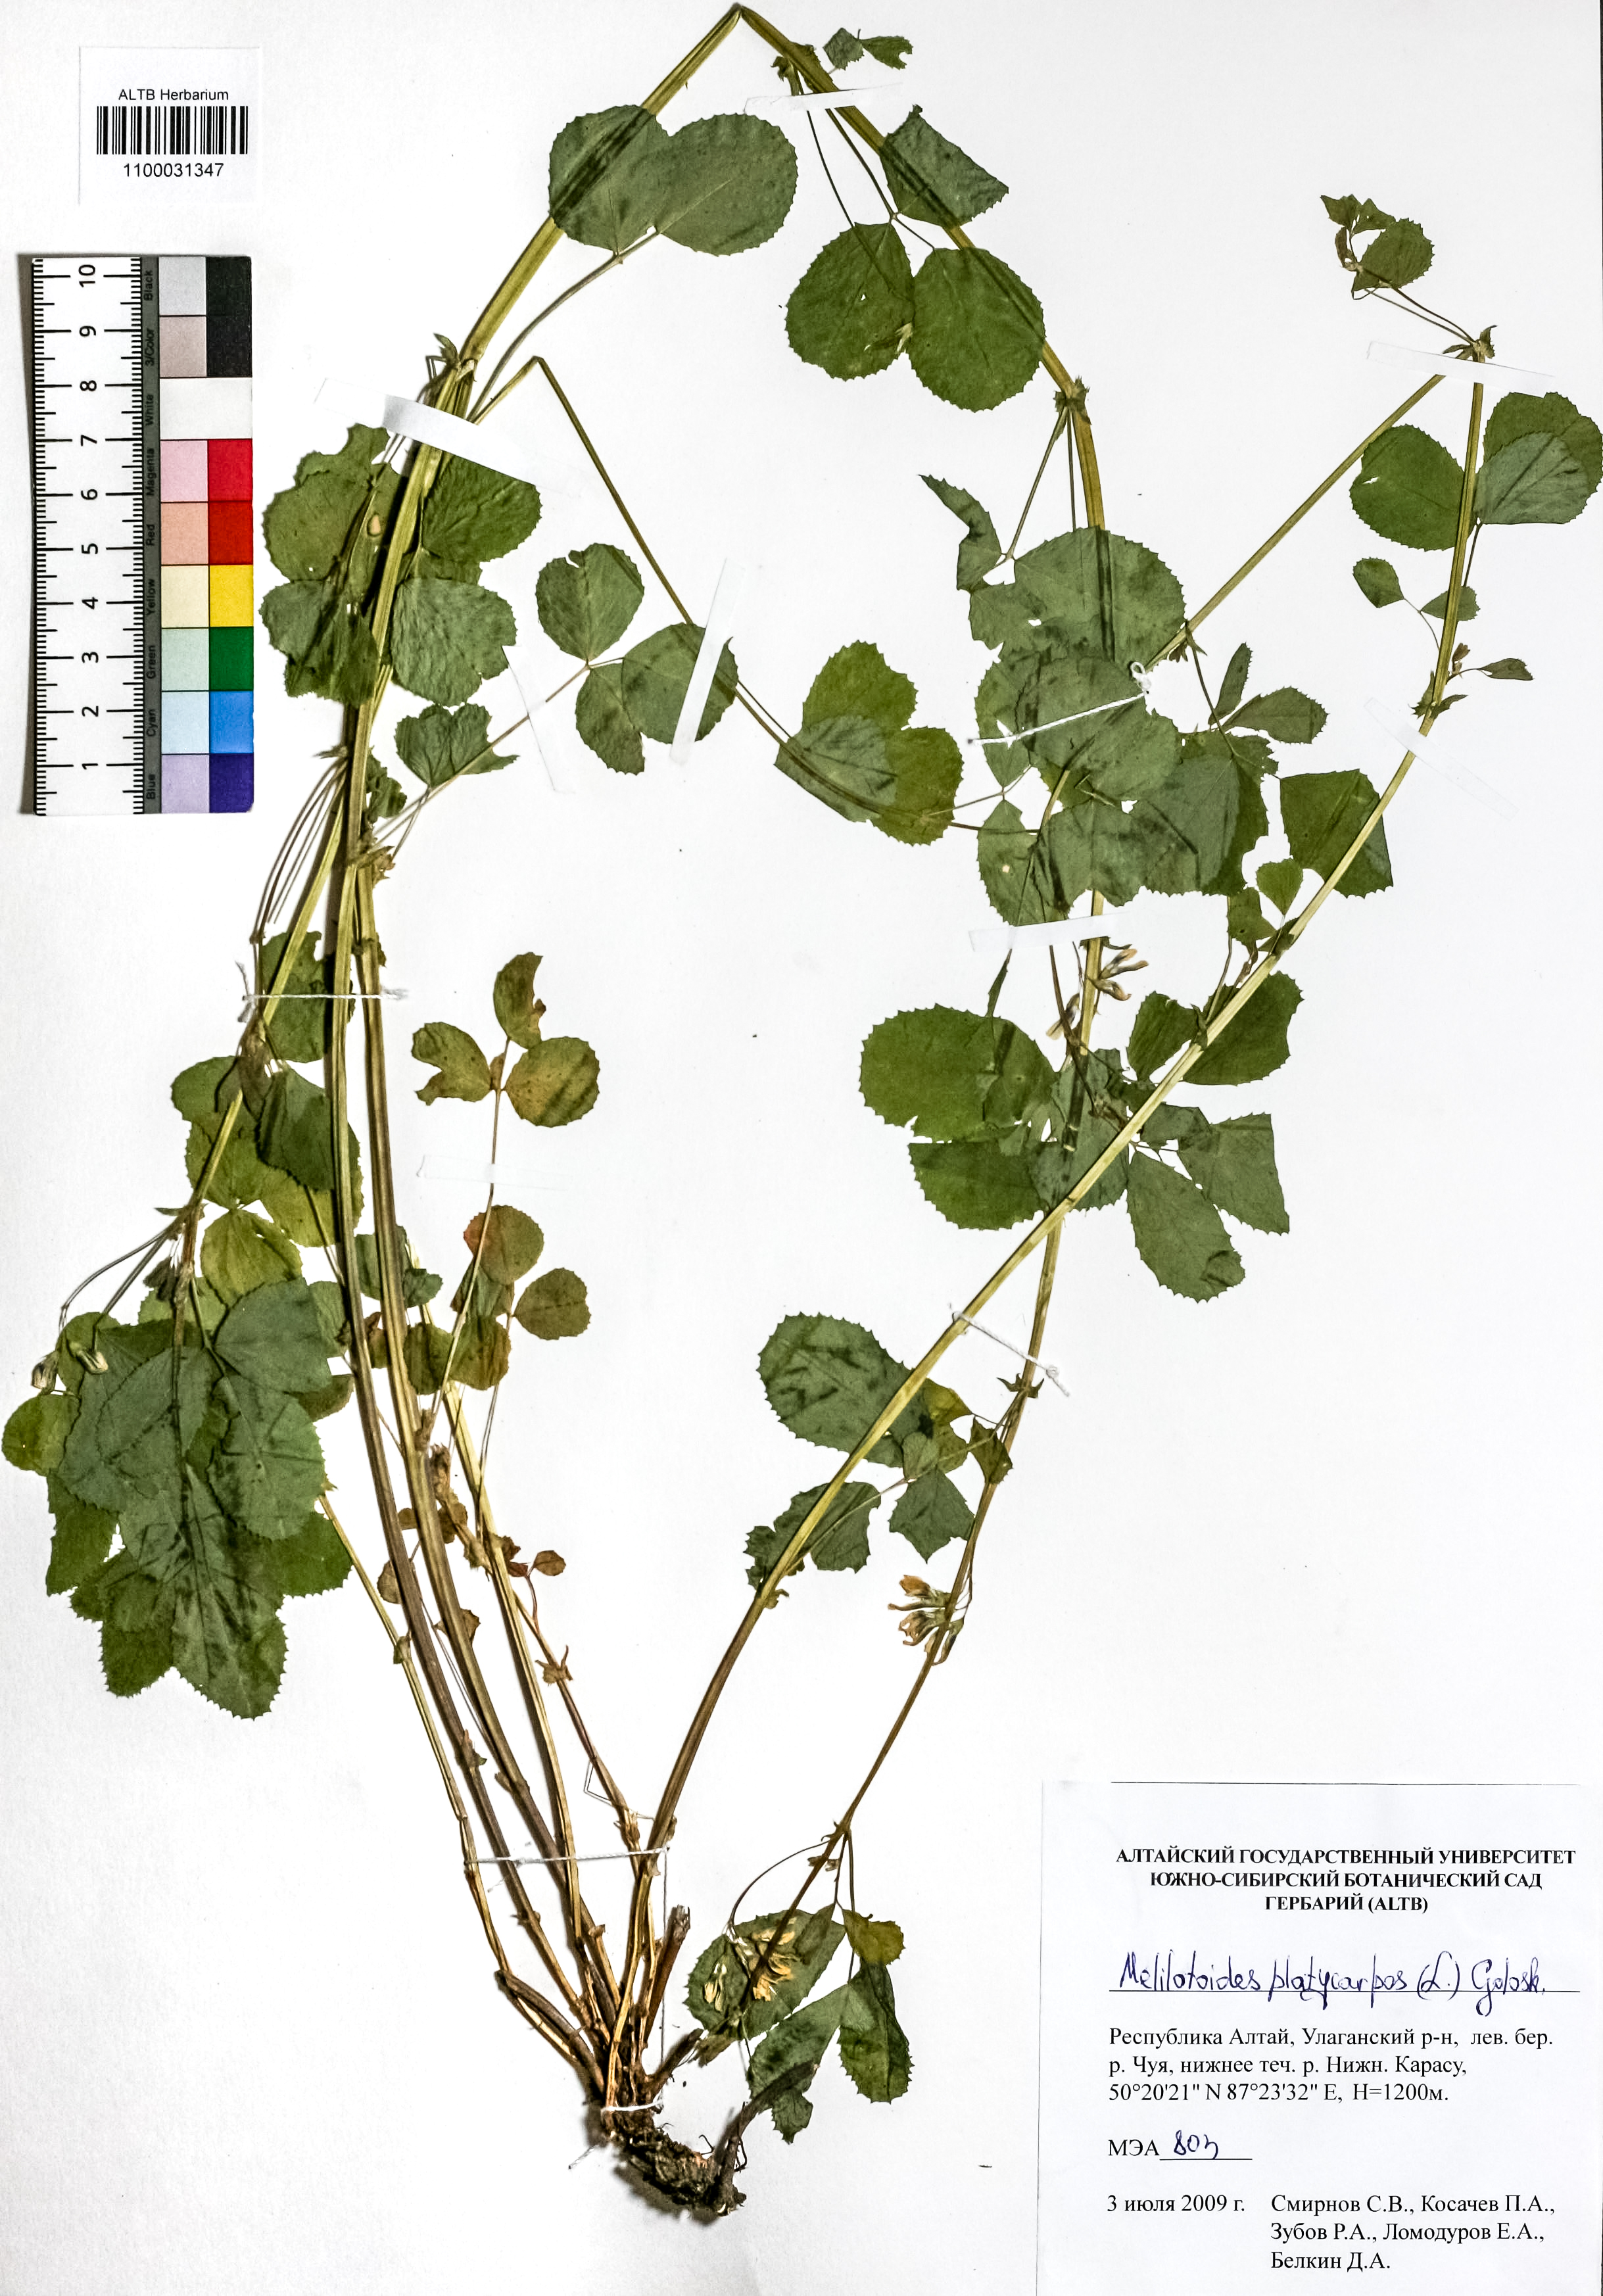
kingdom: Plantae
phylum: Tracheophyta
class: Magnoliopsida
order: Fabales
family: Fabaceae
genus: Medicago
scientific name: Medicago platycarpos
